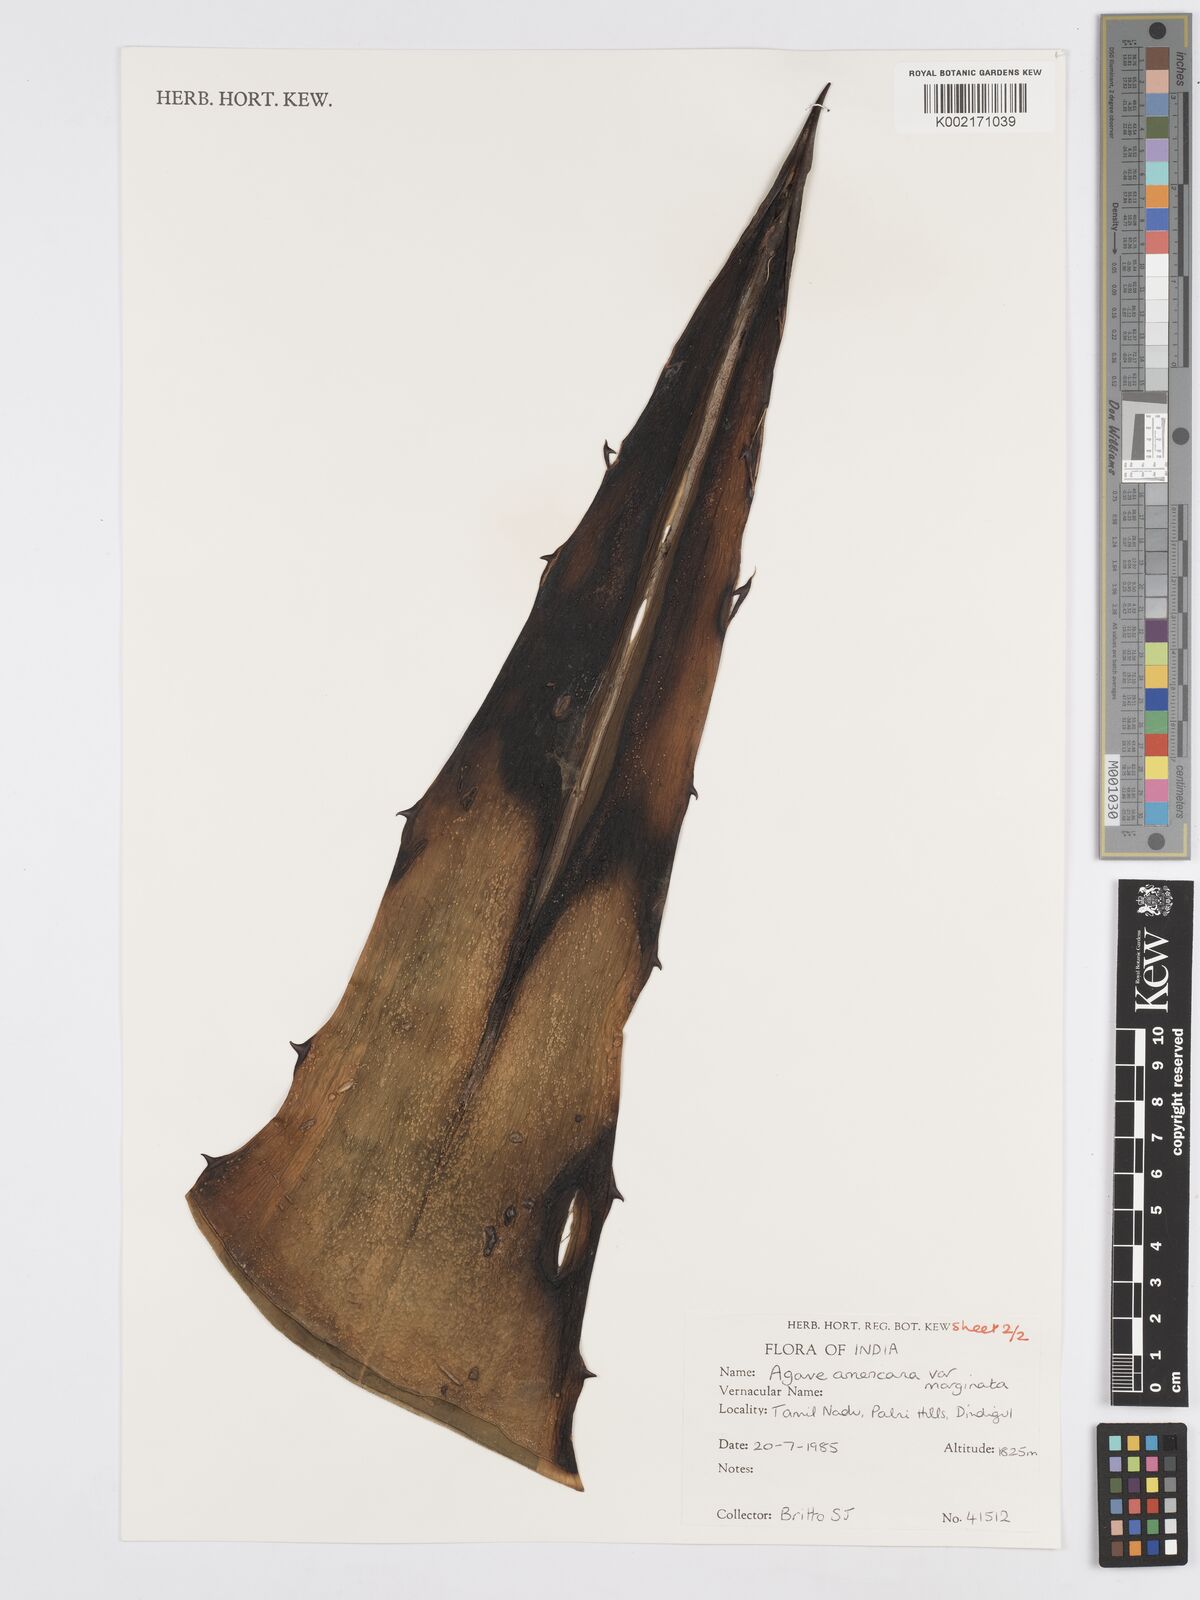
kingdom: Plantae
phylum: Tracheophyta
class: Liliopsida
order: Asparagales
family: Asparagaceae
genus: Agave
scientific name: Agave americana
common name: Centuryplant
